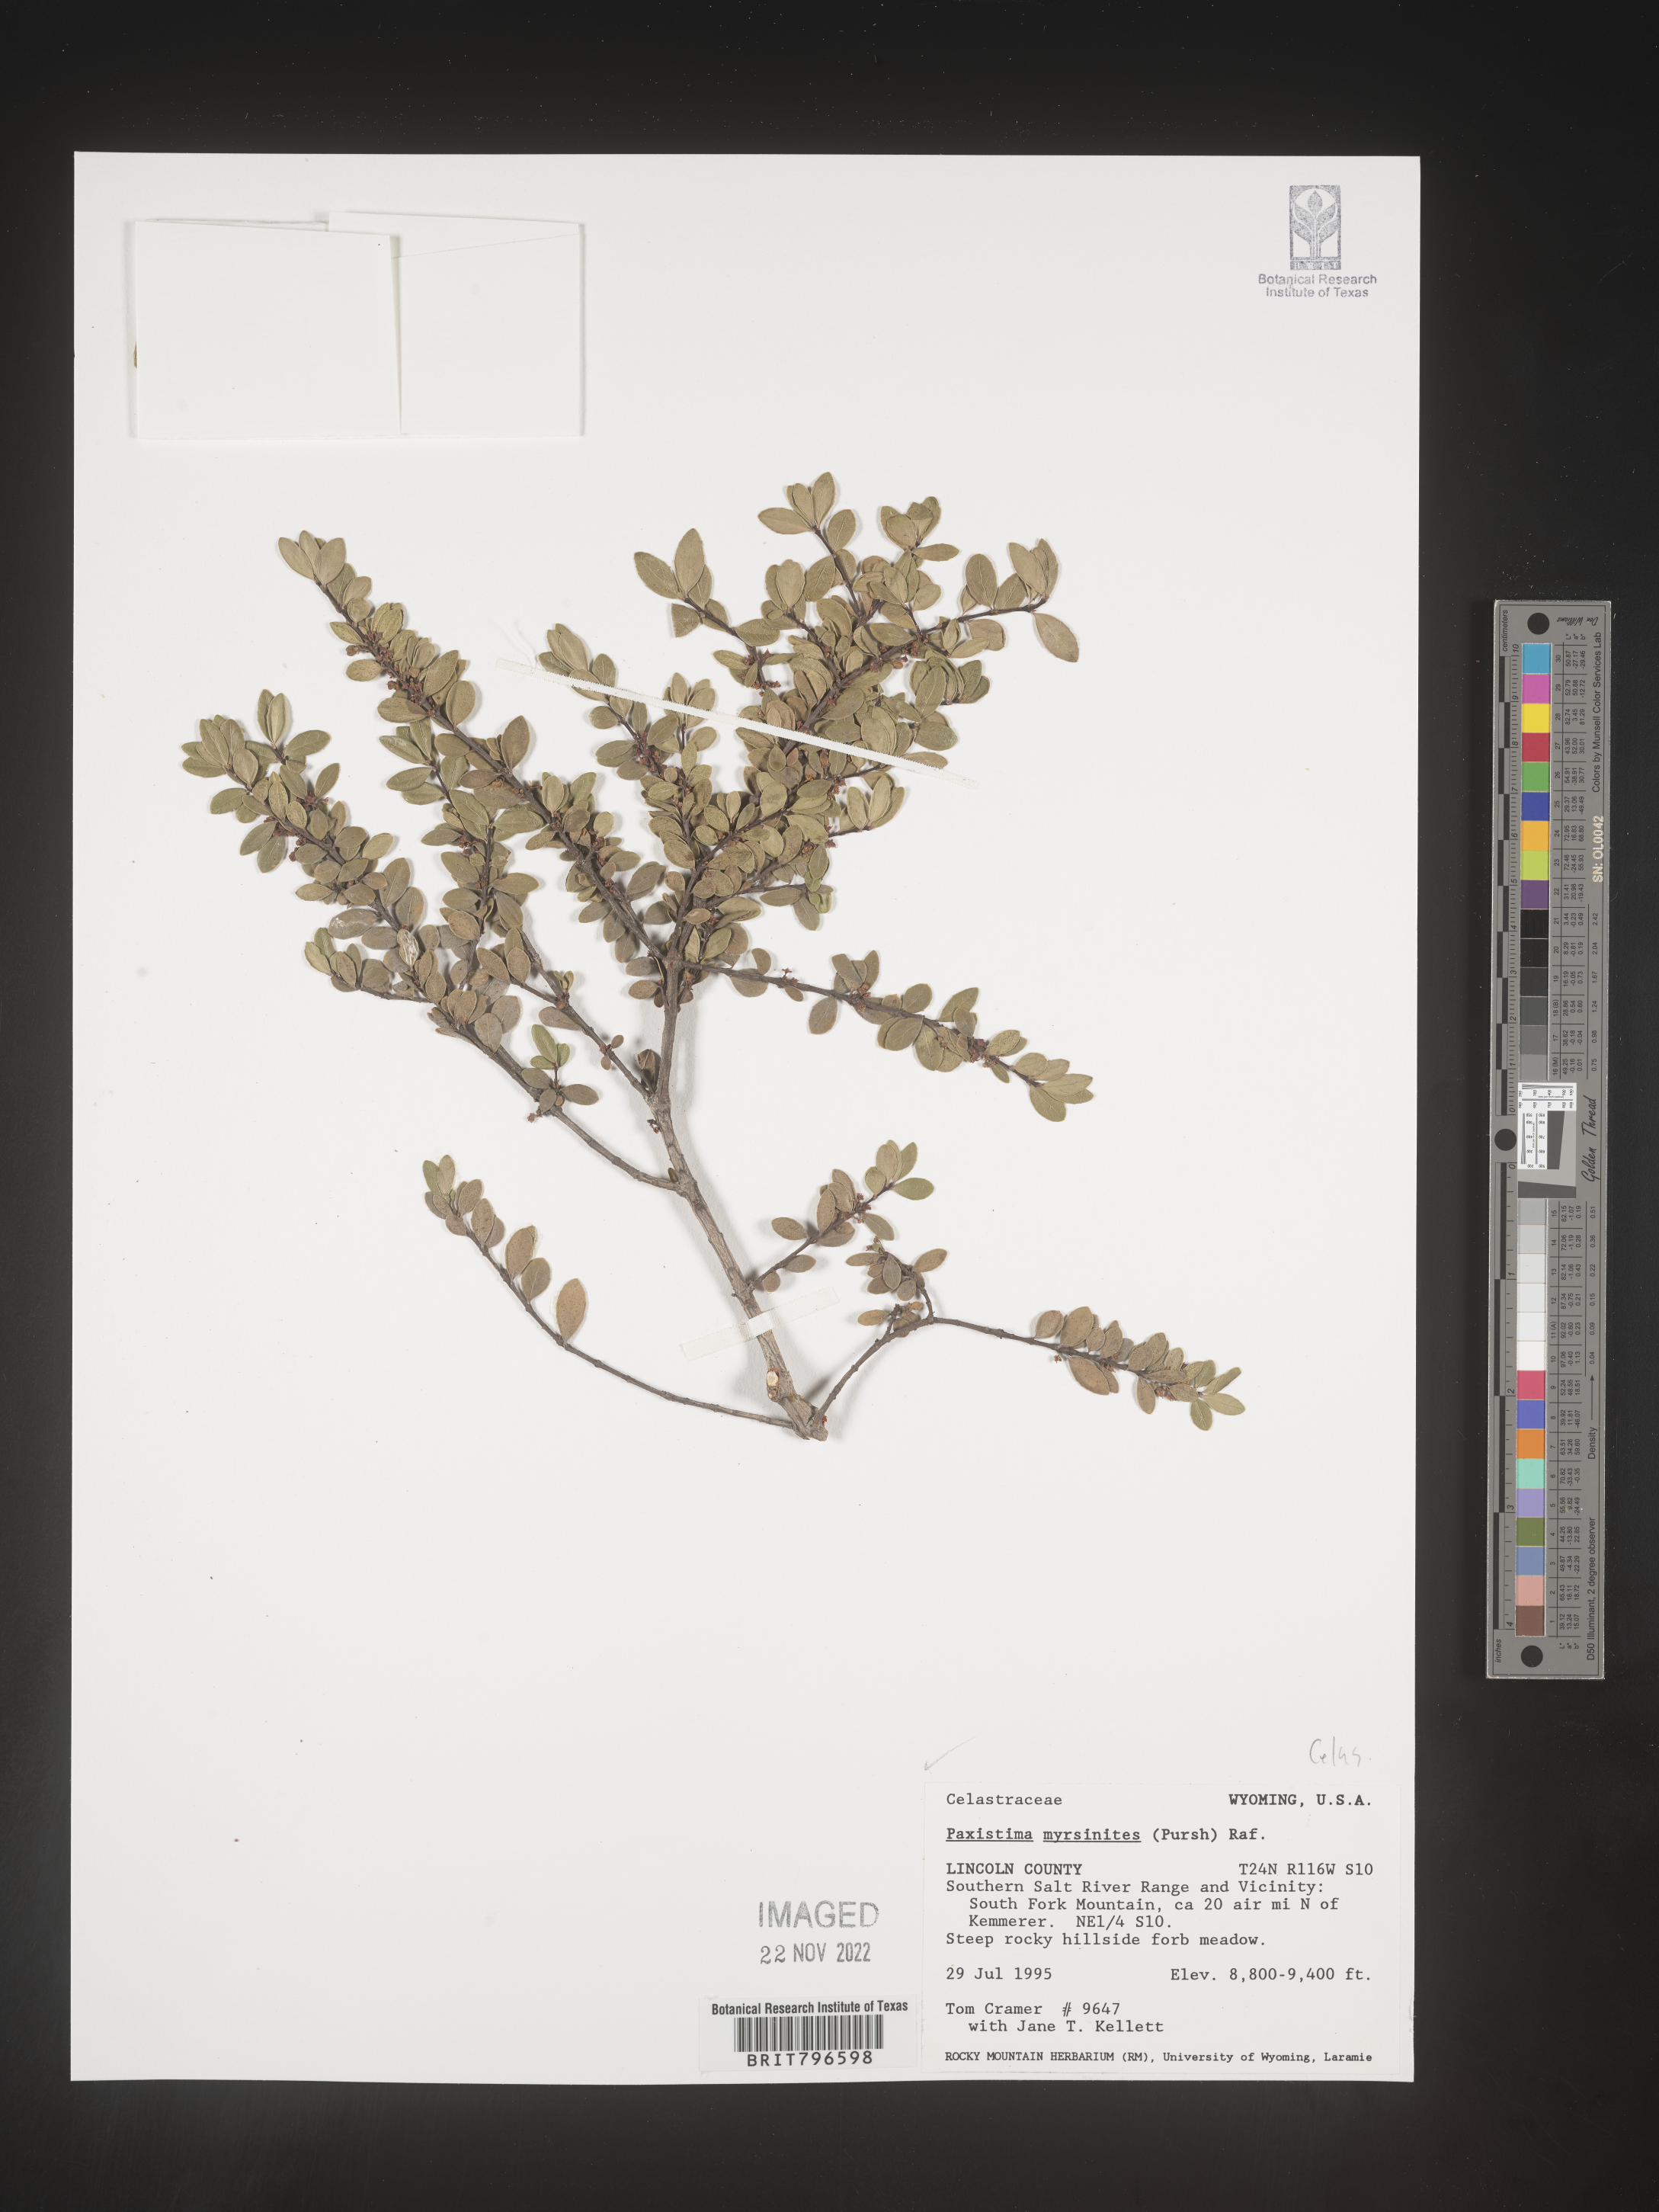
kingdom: Plantae
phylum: Tracheophyta
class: Magnoliopsida
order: Celastrales
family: Celastraceae
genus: Paxistima
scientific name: Paxistima myrsinites
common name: Mountain-lover
